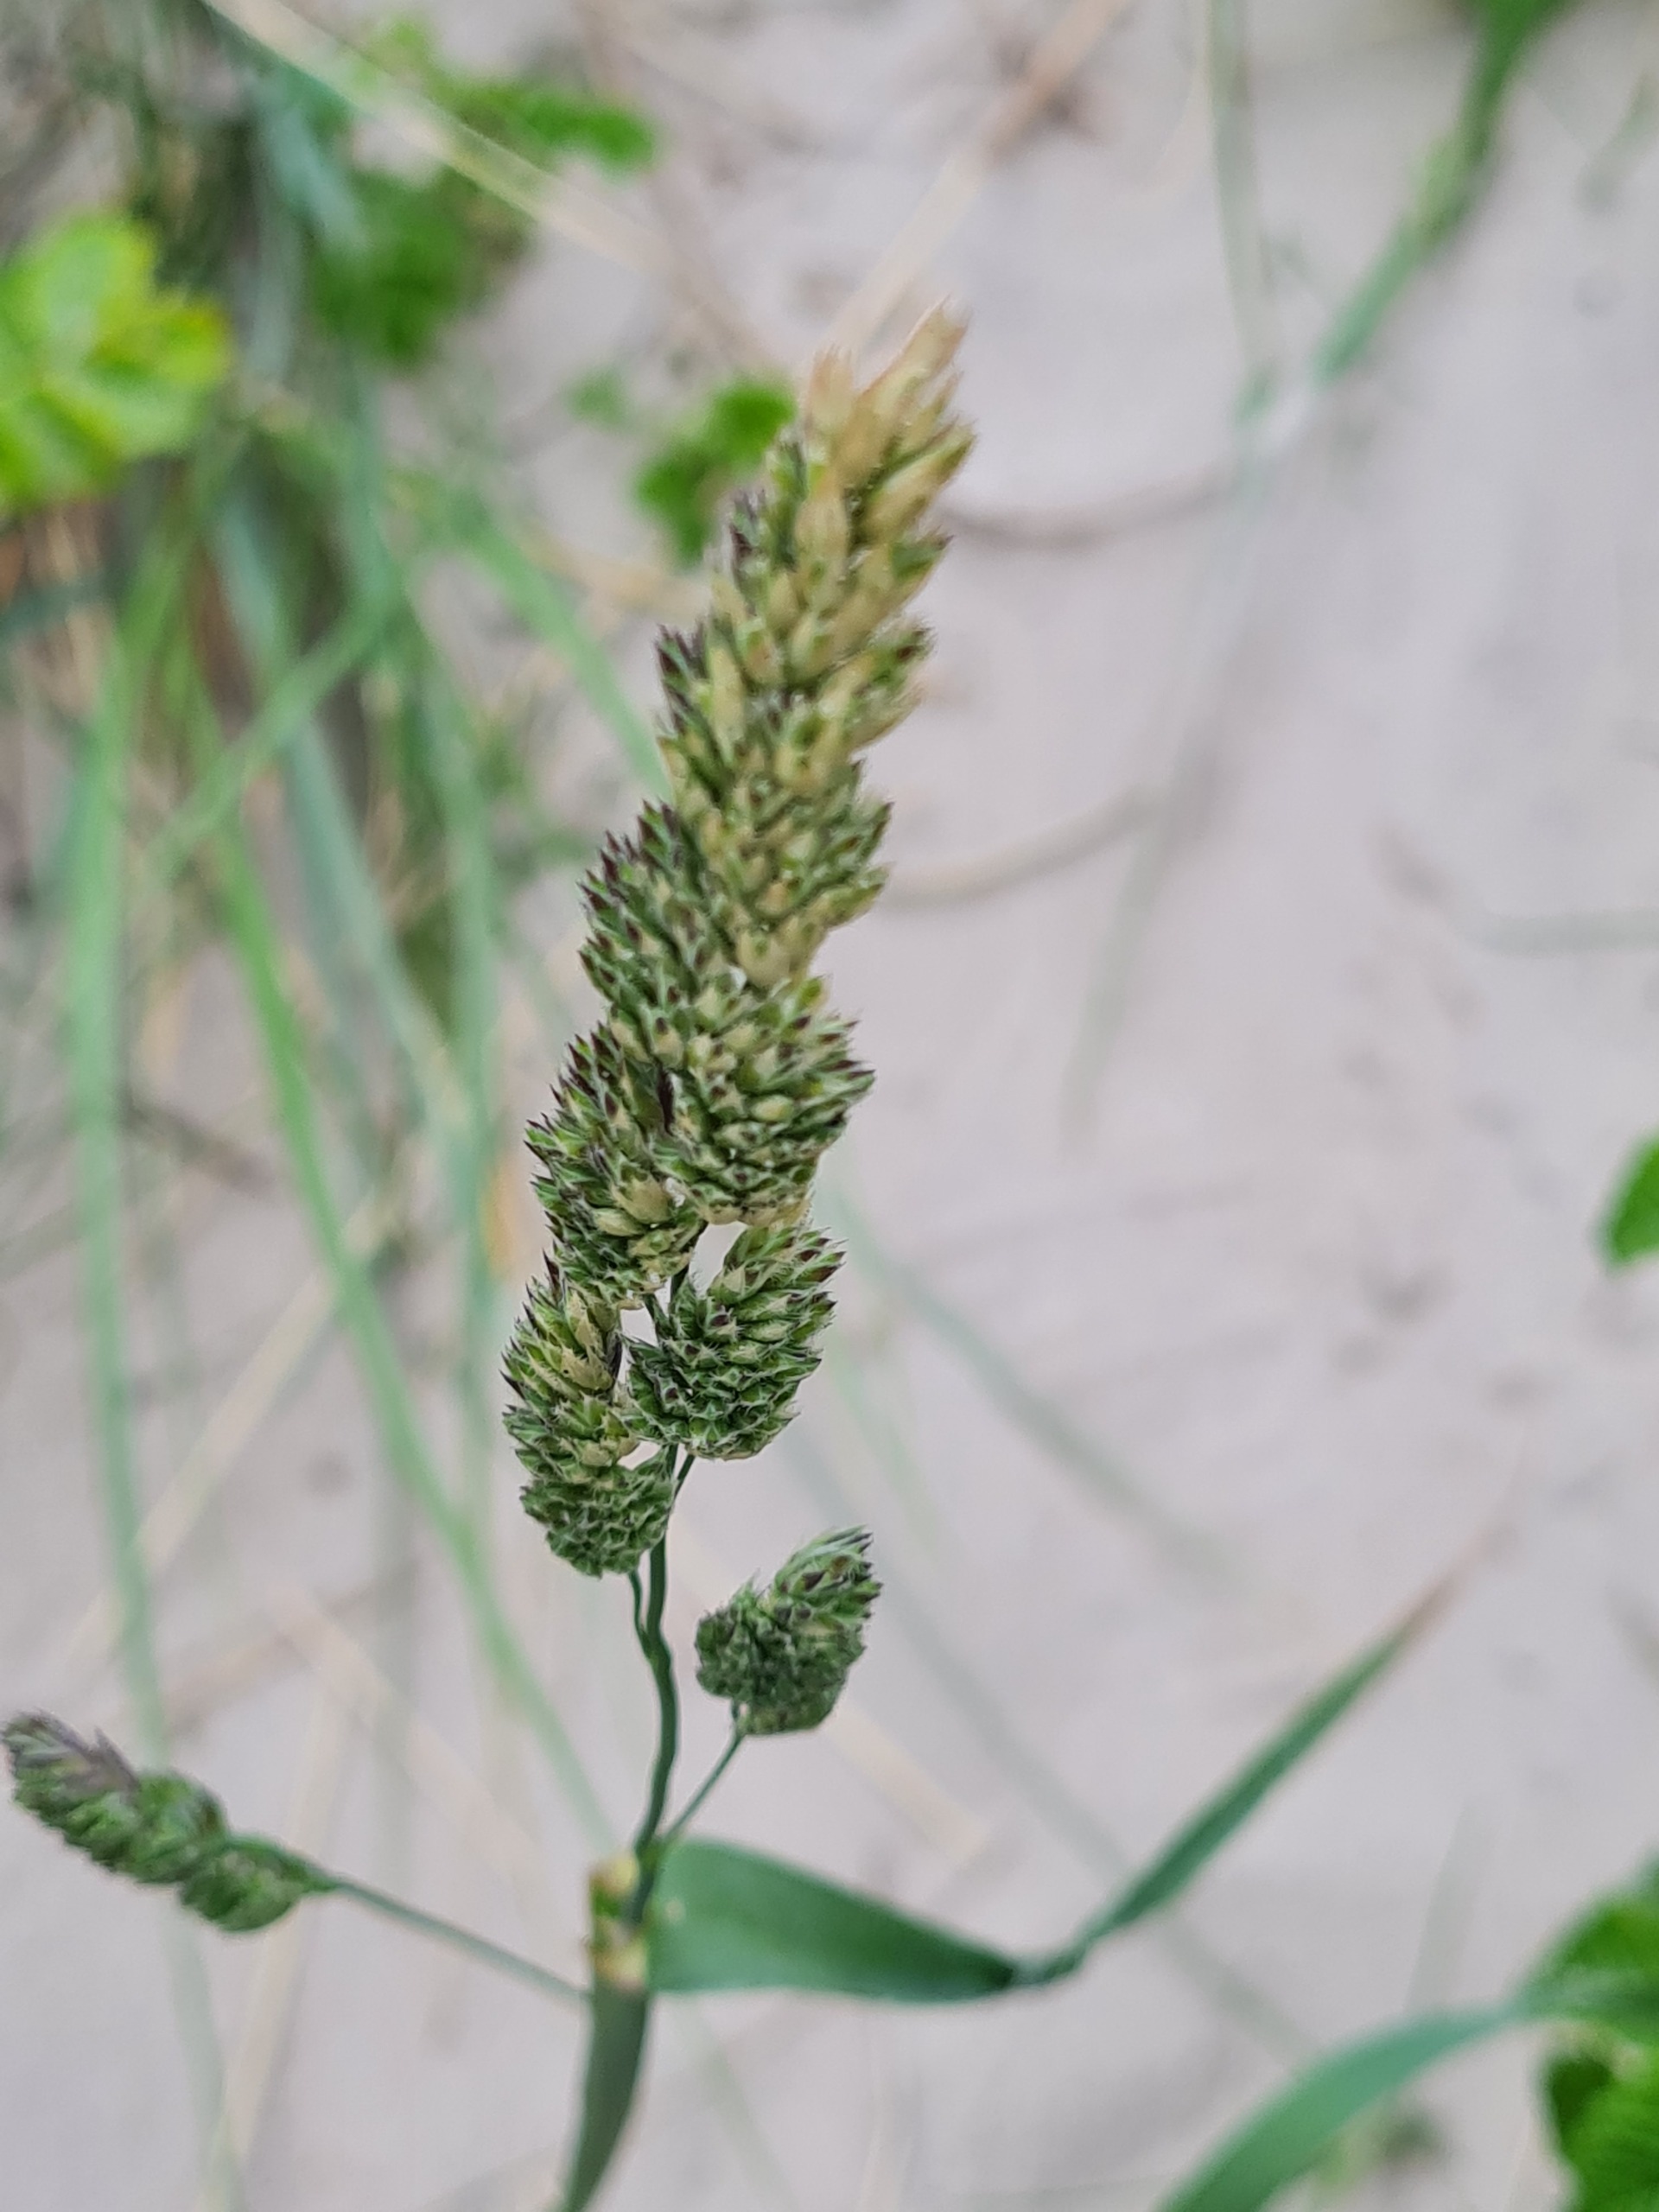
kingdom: Plantae
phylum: Tracheophyta
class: Liliopsida
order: Poales
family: Poaceae
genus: Dactylis
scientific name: Dactylis glomerata
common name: Almindelig hundegræs
